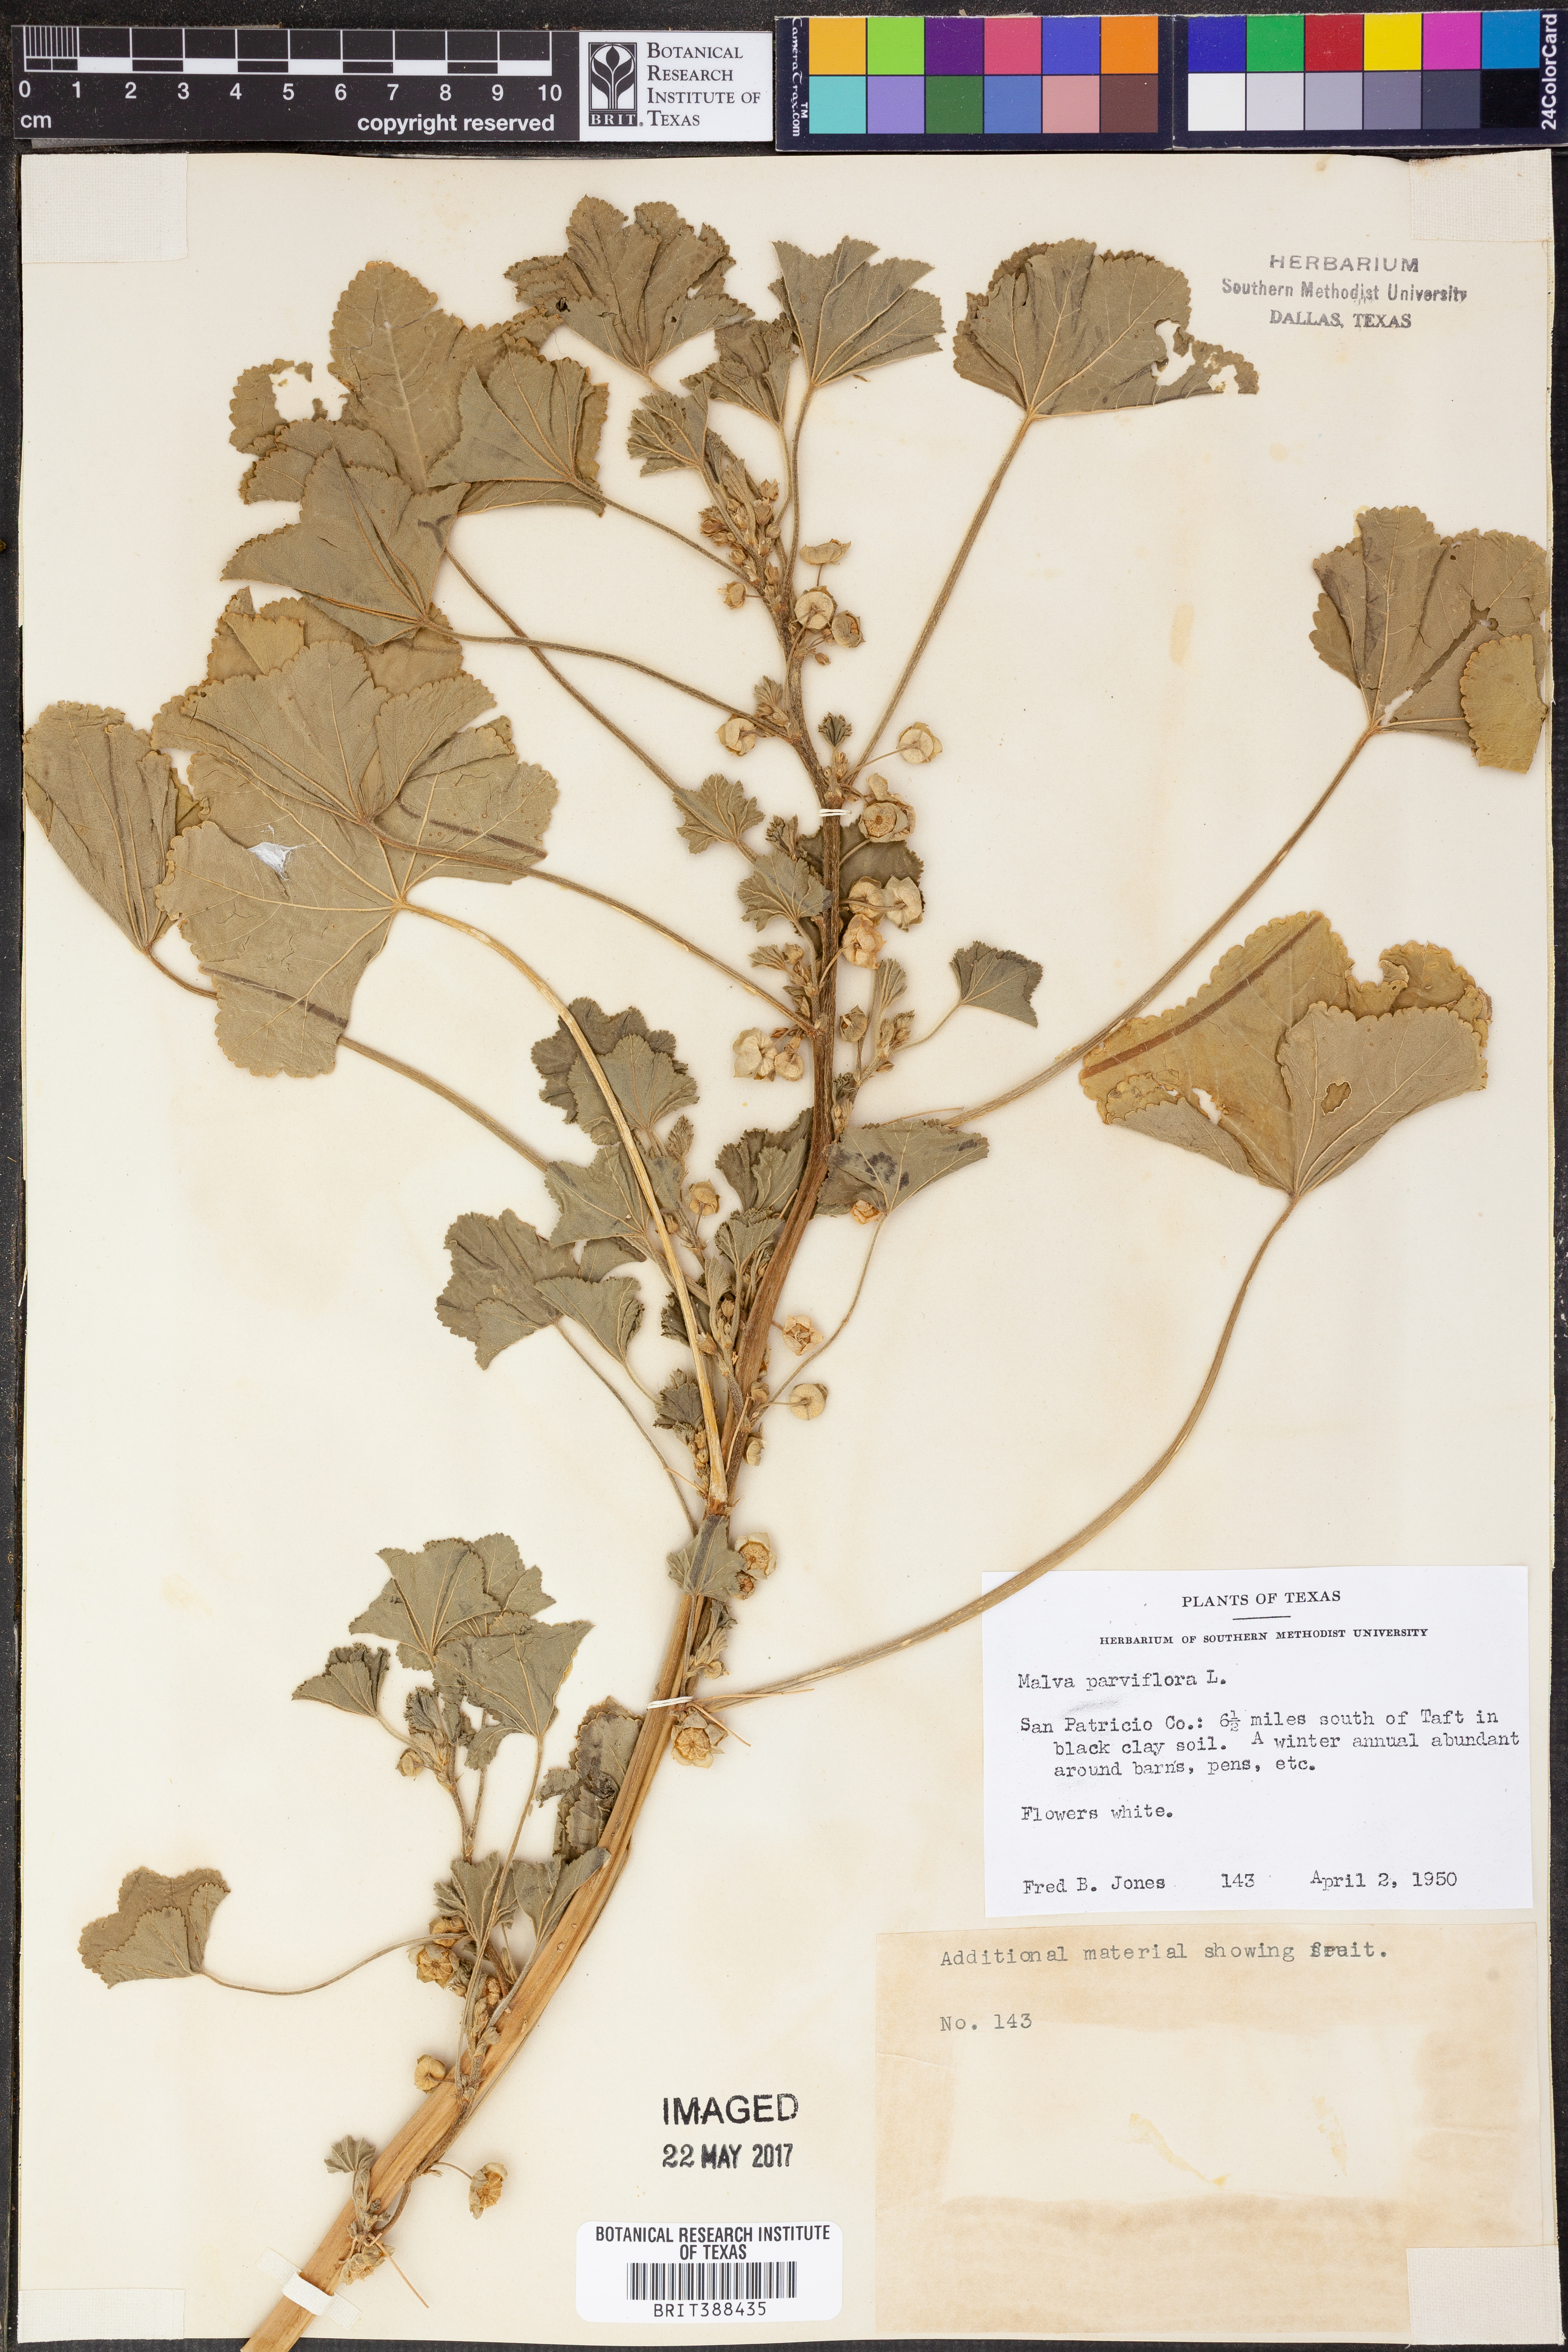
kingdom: Plantae
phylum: Tracheophyta
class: Magnoliopsida
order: Malvales
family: Malvaceae
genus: Malva
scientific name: Malva parviflora
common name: Least mallow
